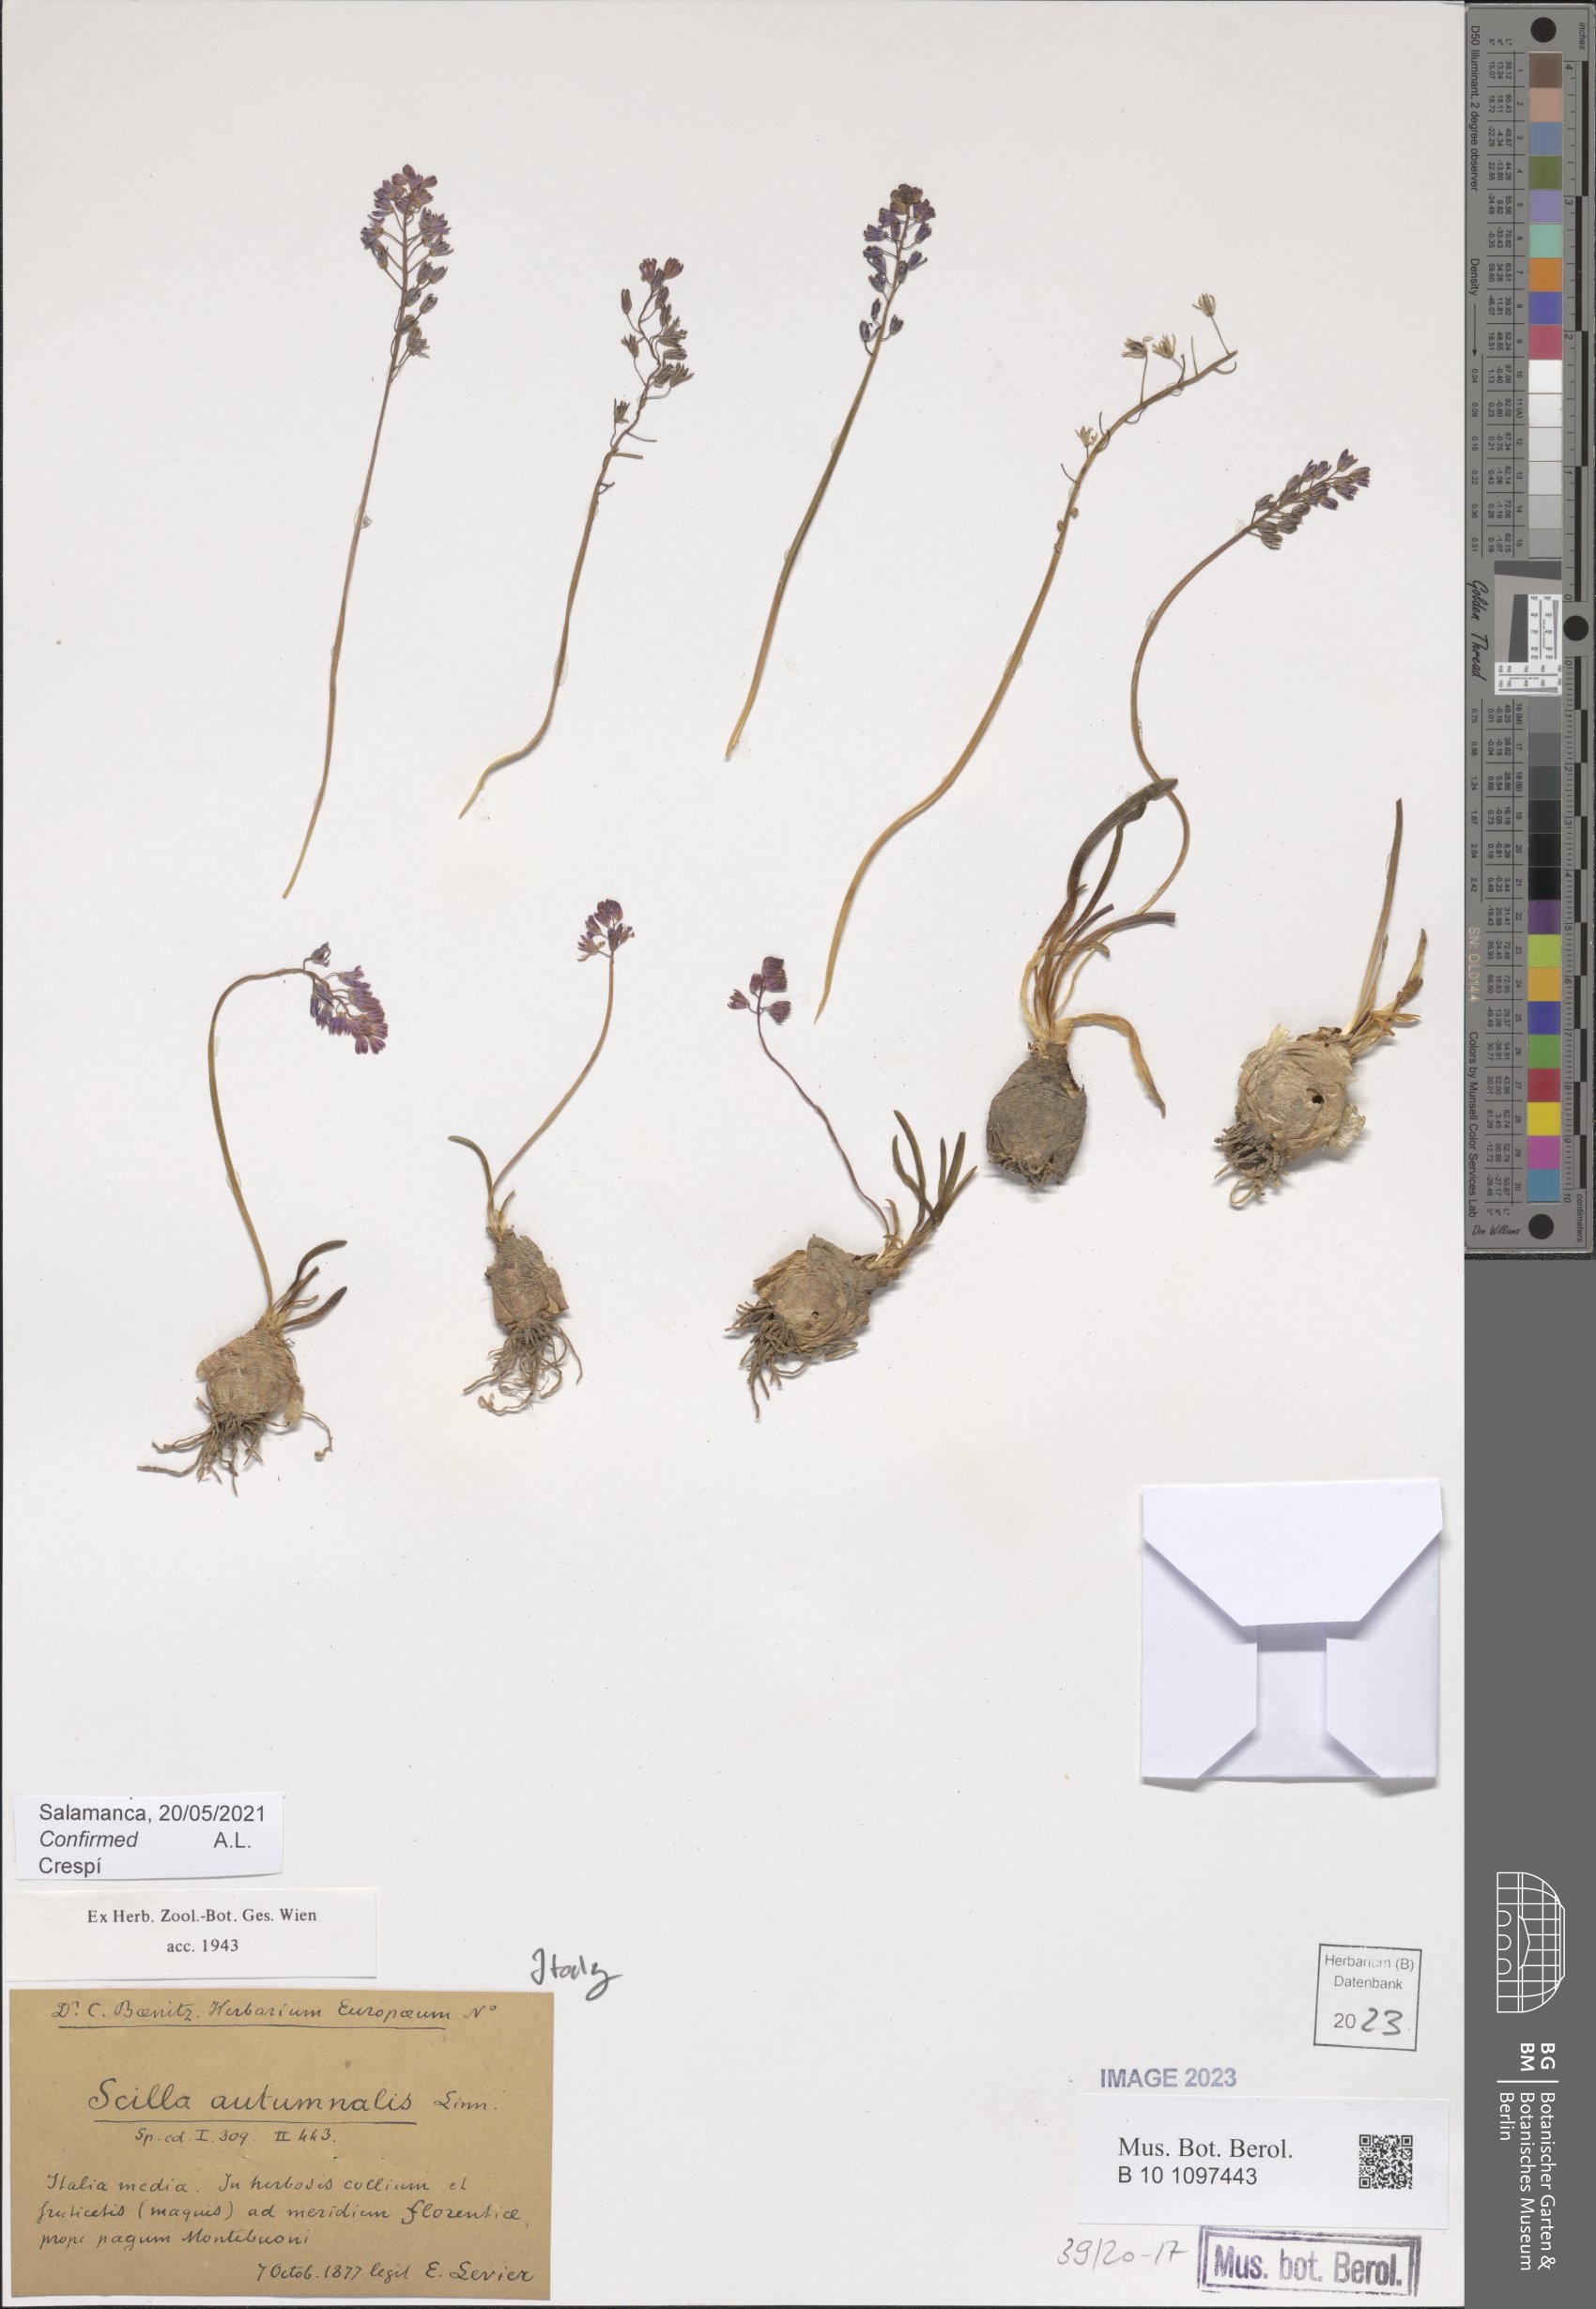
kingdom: Plantae
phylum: Tracheophyta
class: Liliopsida
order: Asparagales
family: Asparagaceae
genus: Prospero
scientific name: Prospero autumnale
